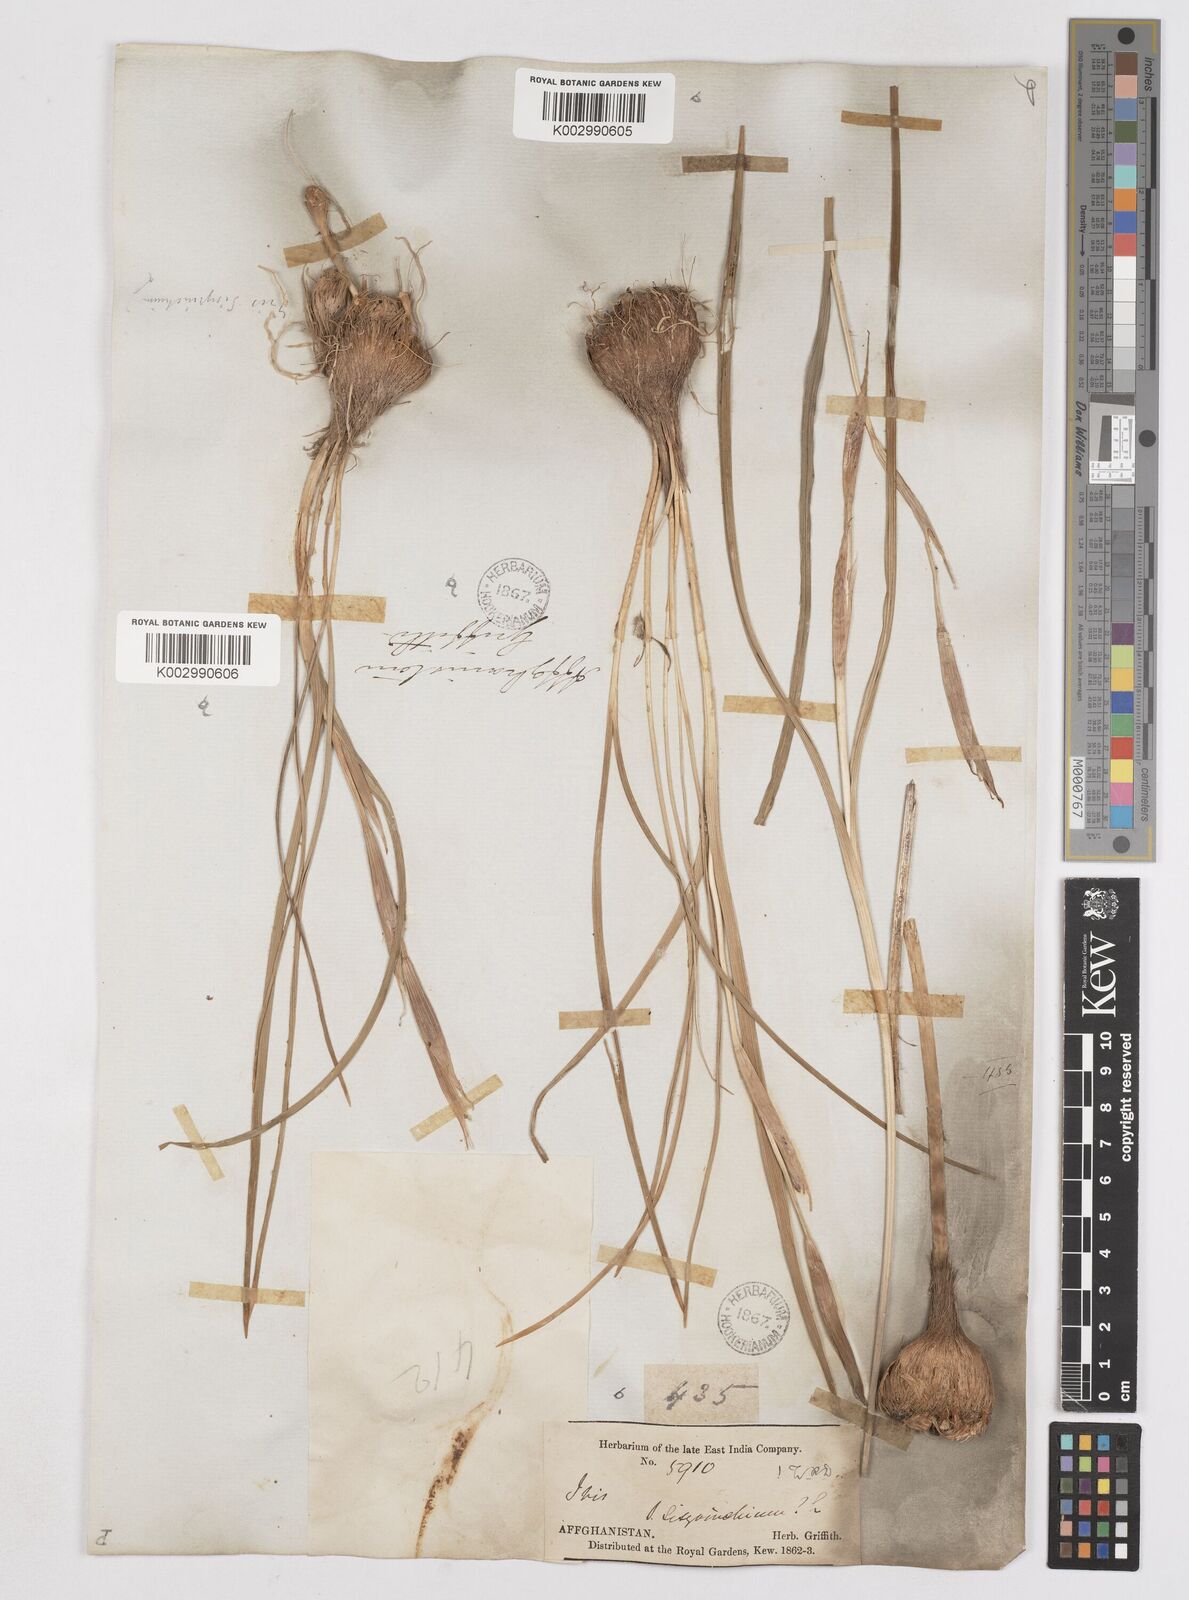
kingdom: Plantae
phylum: Tracheophyta
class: Liliopsida
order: Asparagales
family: Iridaceae
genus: Moraea
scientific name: Moraea sisyrinchium
